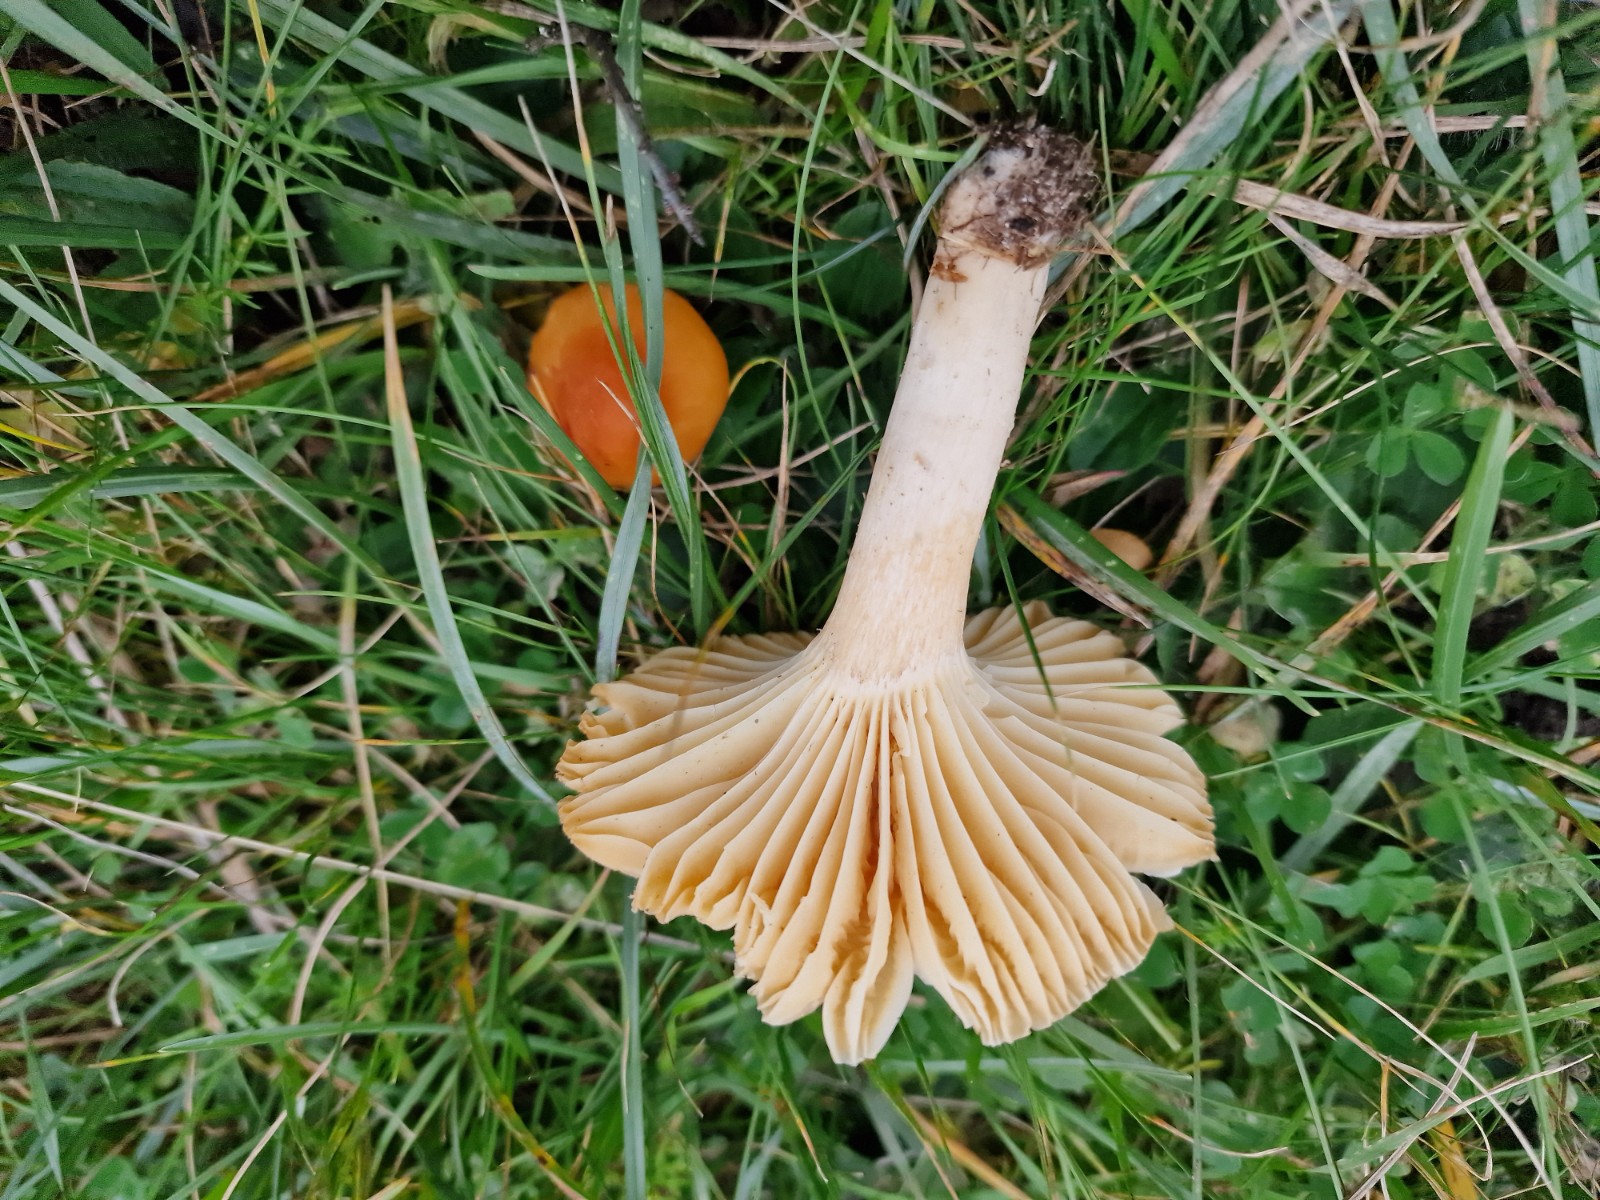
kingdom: Fungi
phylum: Basidiomycota
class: Agaricomycetes
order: Agaricales
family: Hygrophoraceae
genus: Cuphophyllus
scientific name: Cuphophyllus pratensis
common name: eng-vokshat
